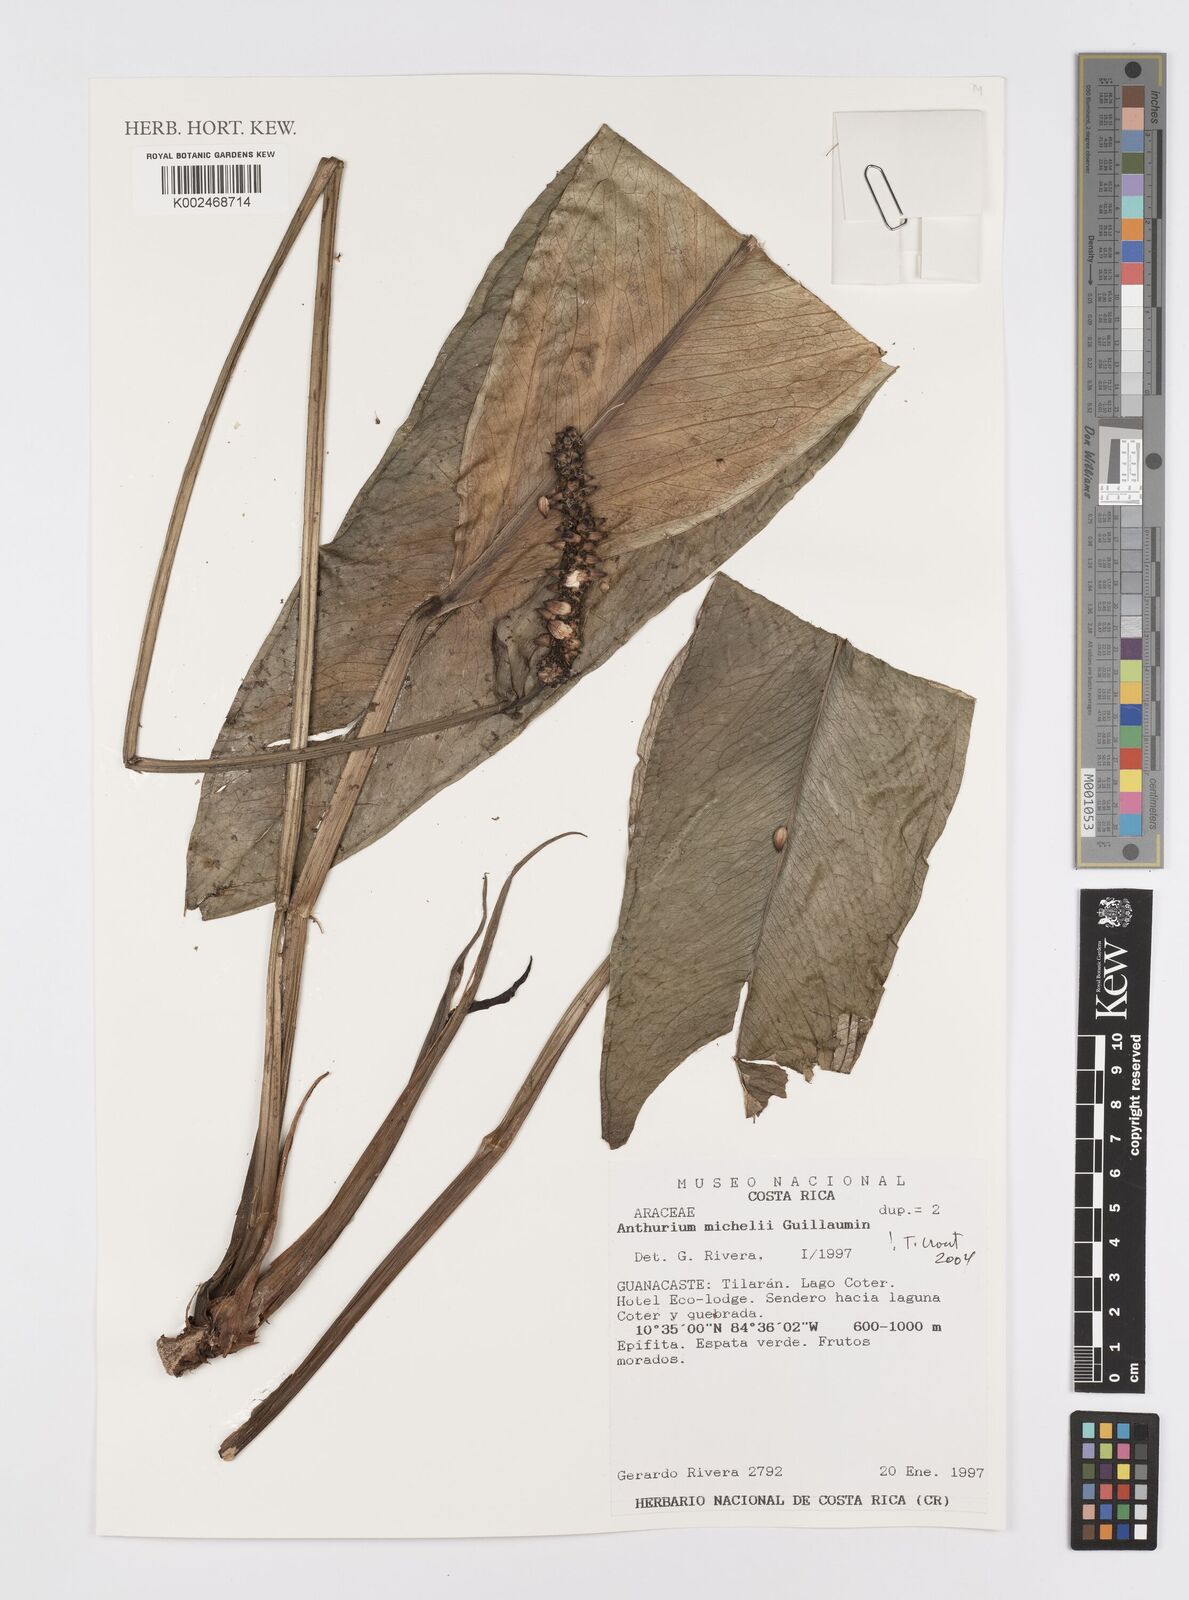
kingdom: Plantae
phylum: Tracheophyta
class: Liliopsida
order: Alismatales
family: Araceae
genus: Anthurium
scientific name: Anthurium michelii
